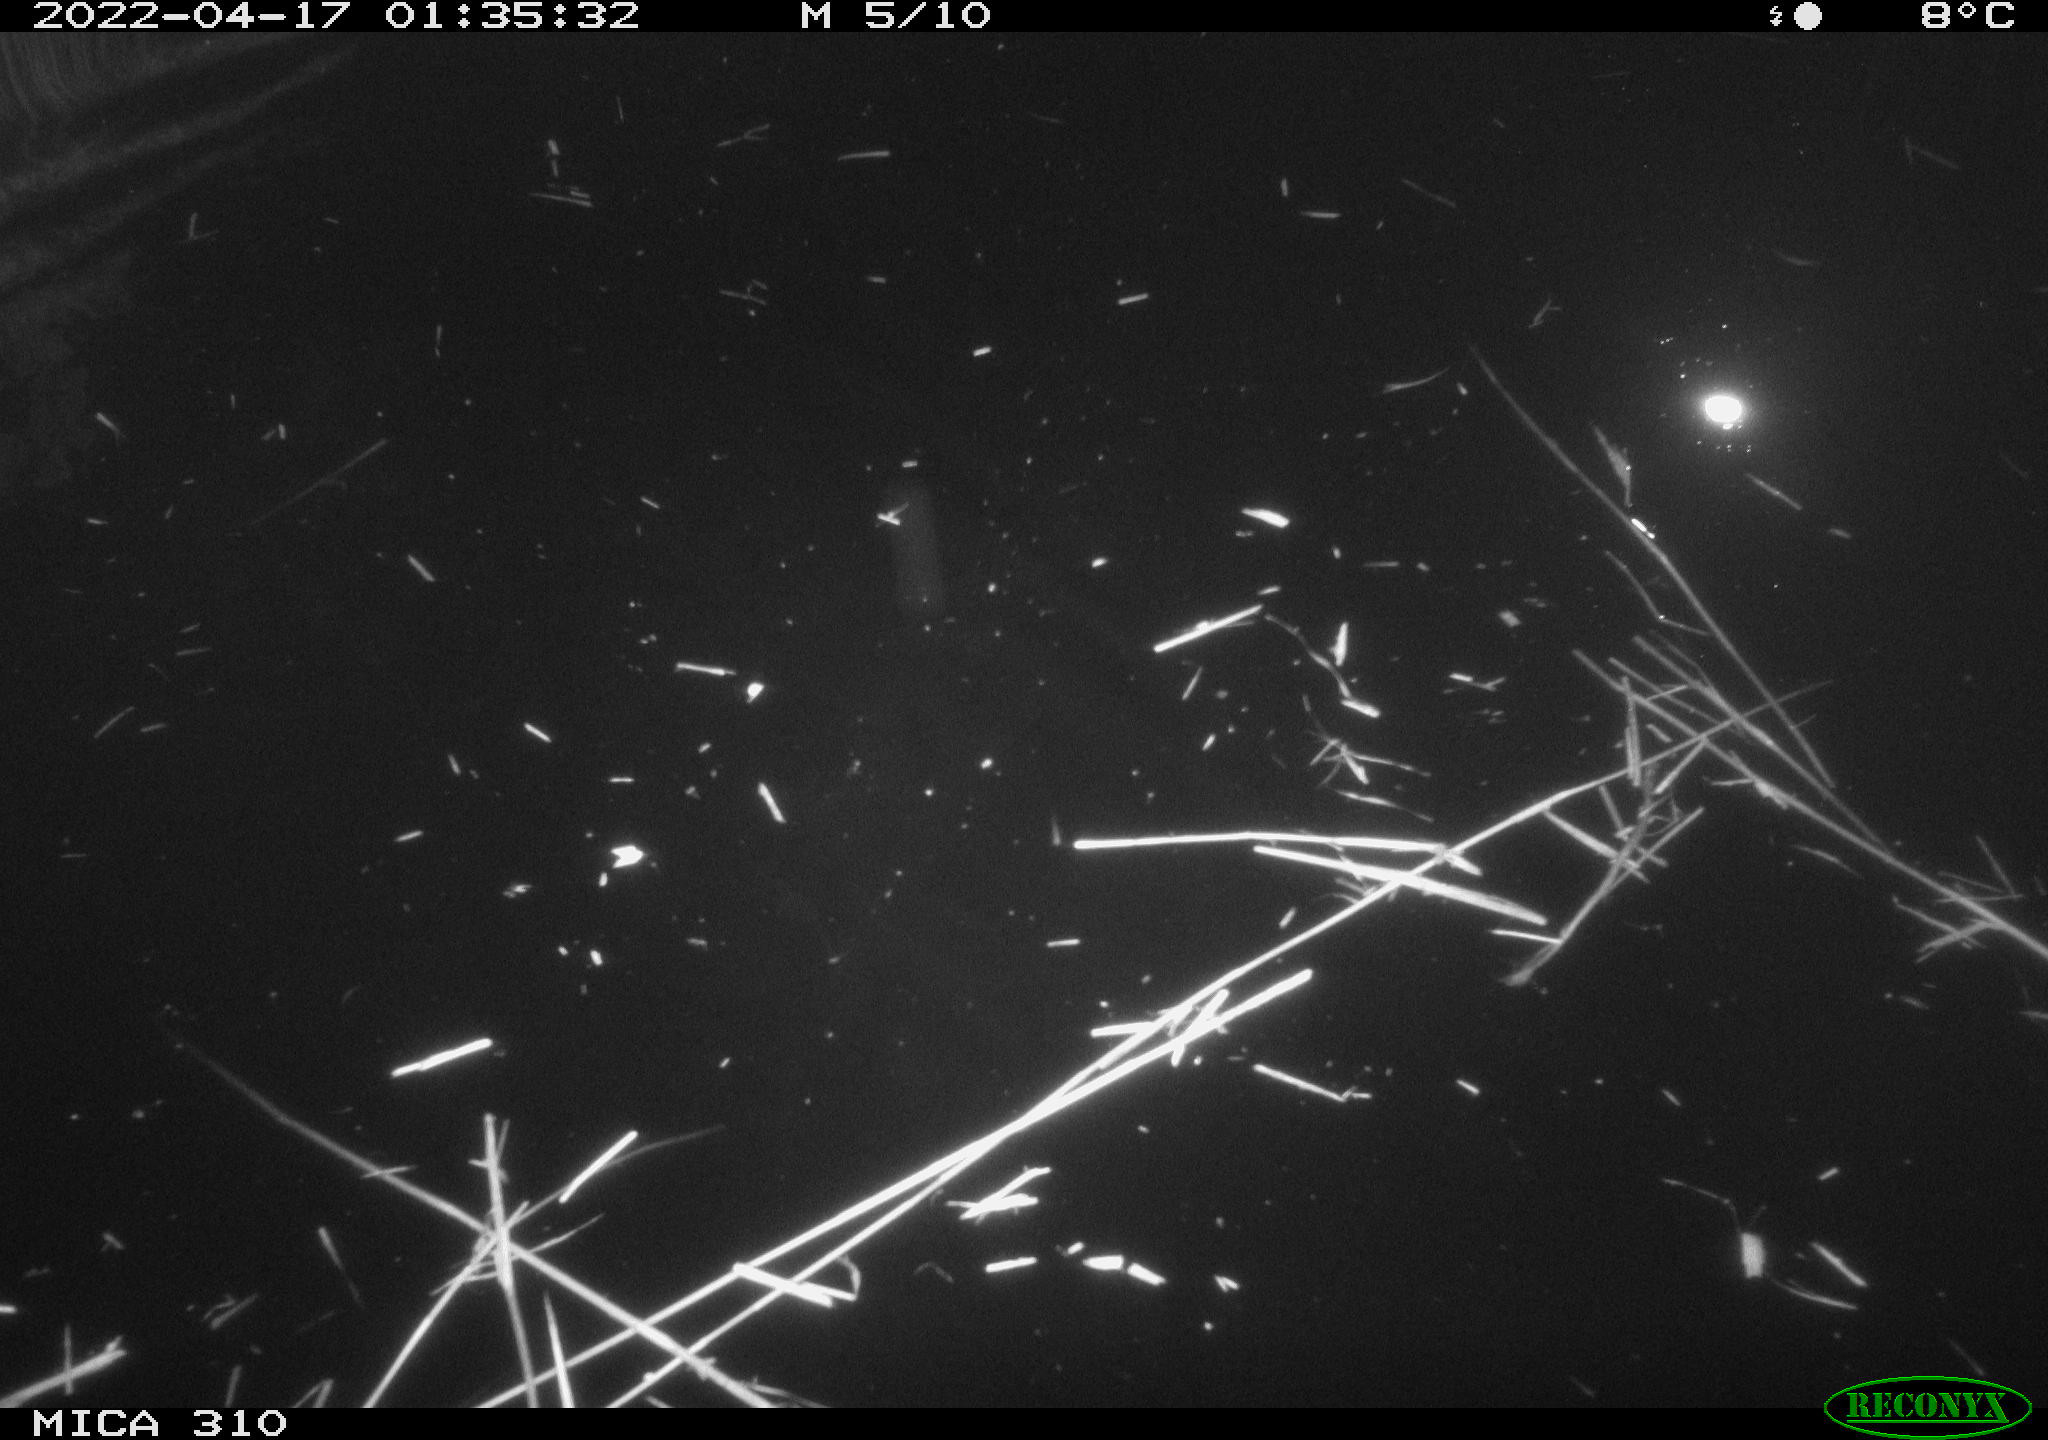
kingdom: Animalia
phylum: Chordata
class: Aves
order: Anseriformes
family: Anatidae
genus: Anas
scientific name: Anas platyrhynchos
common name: Mallard
